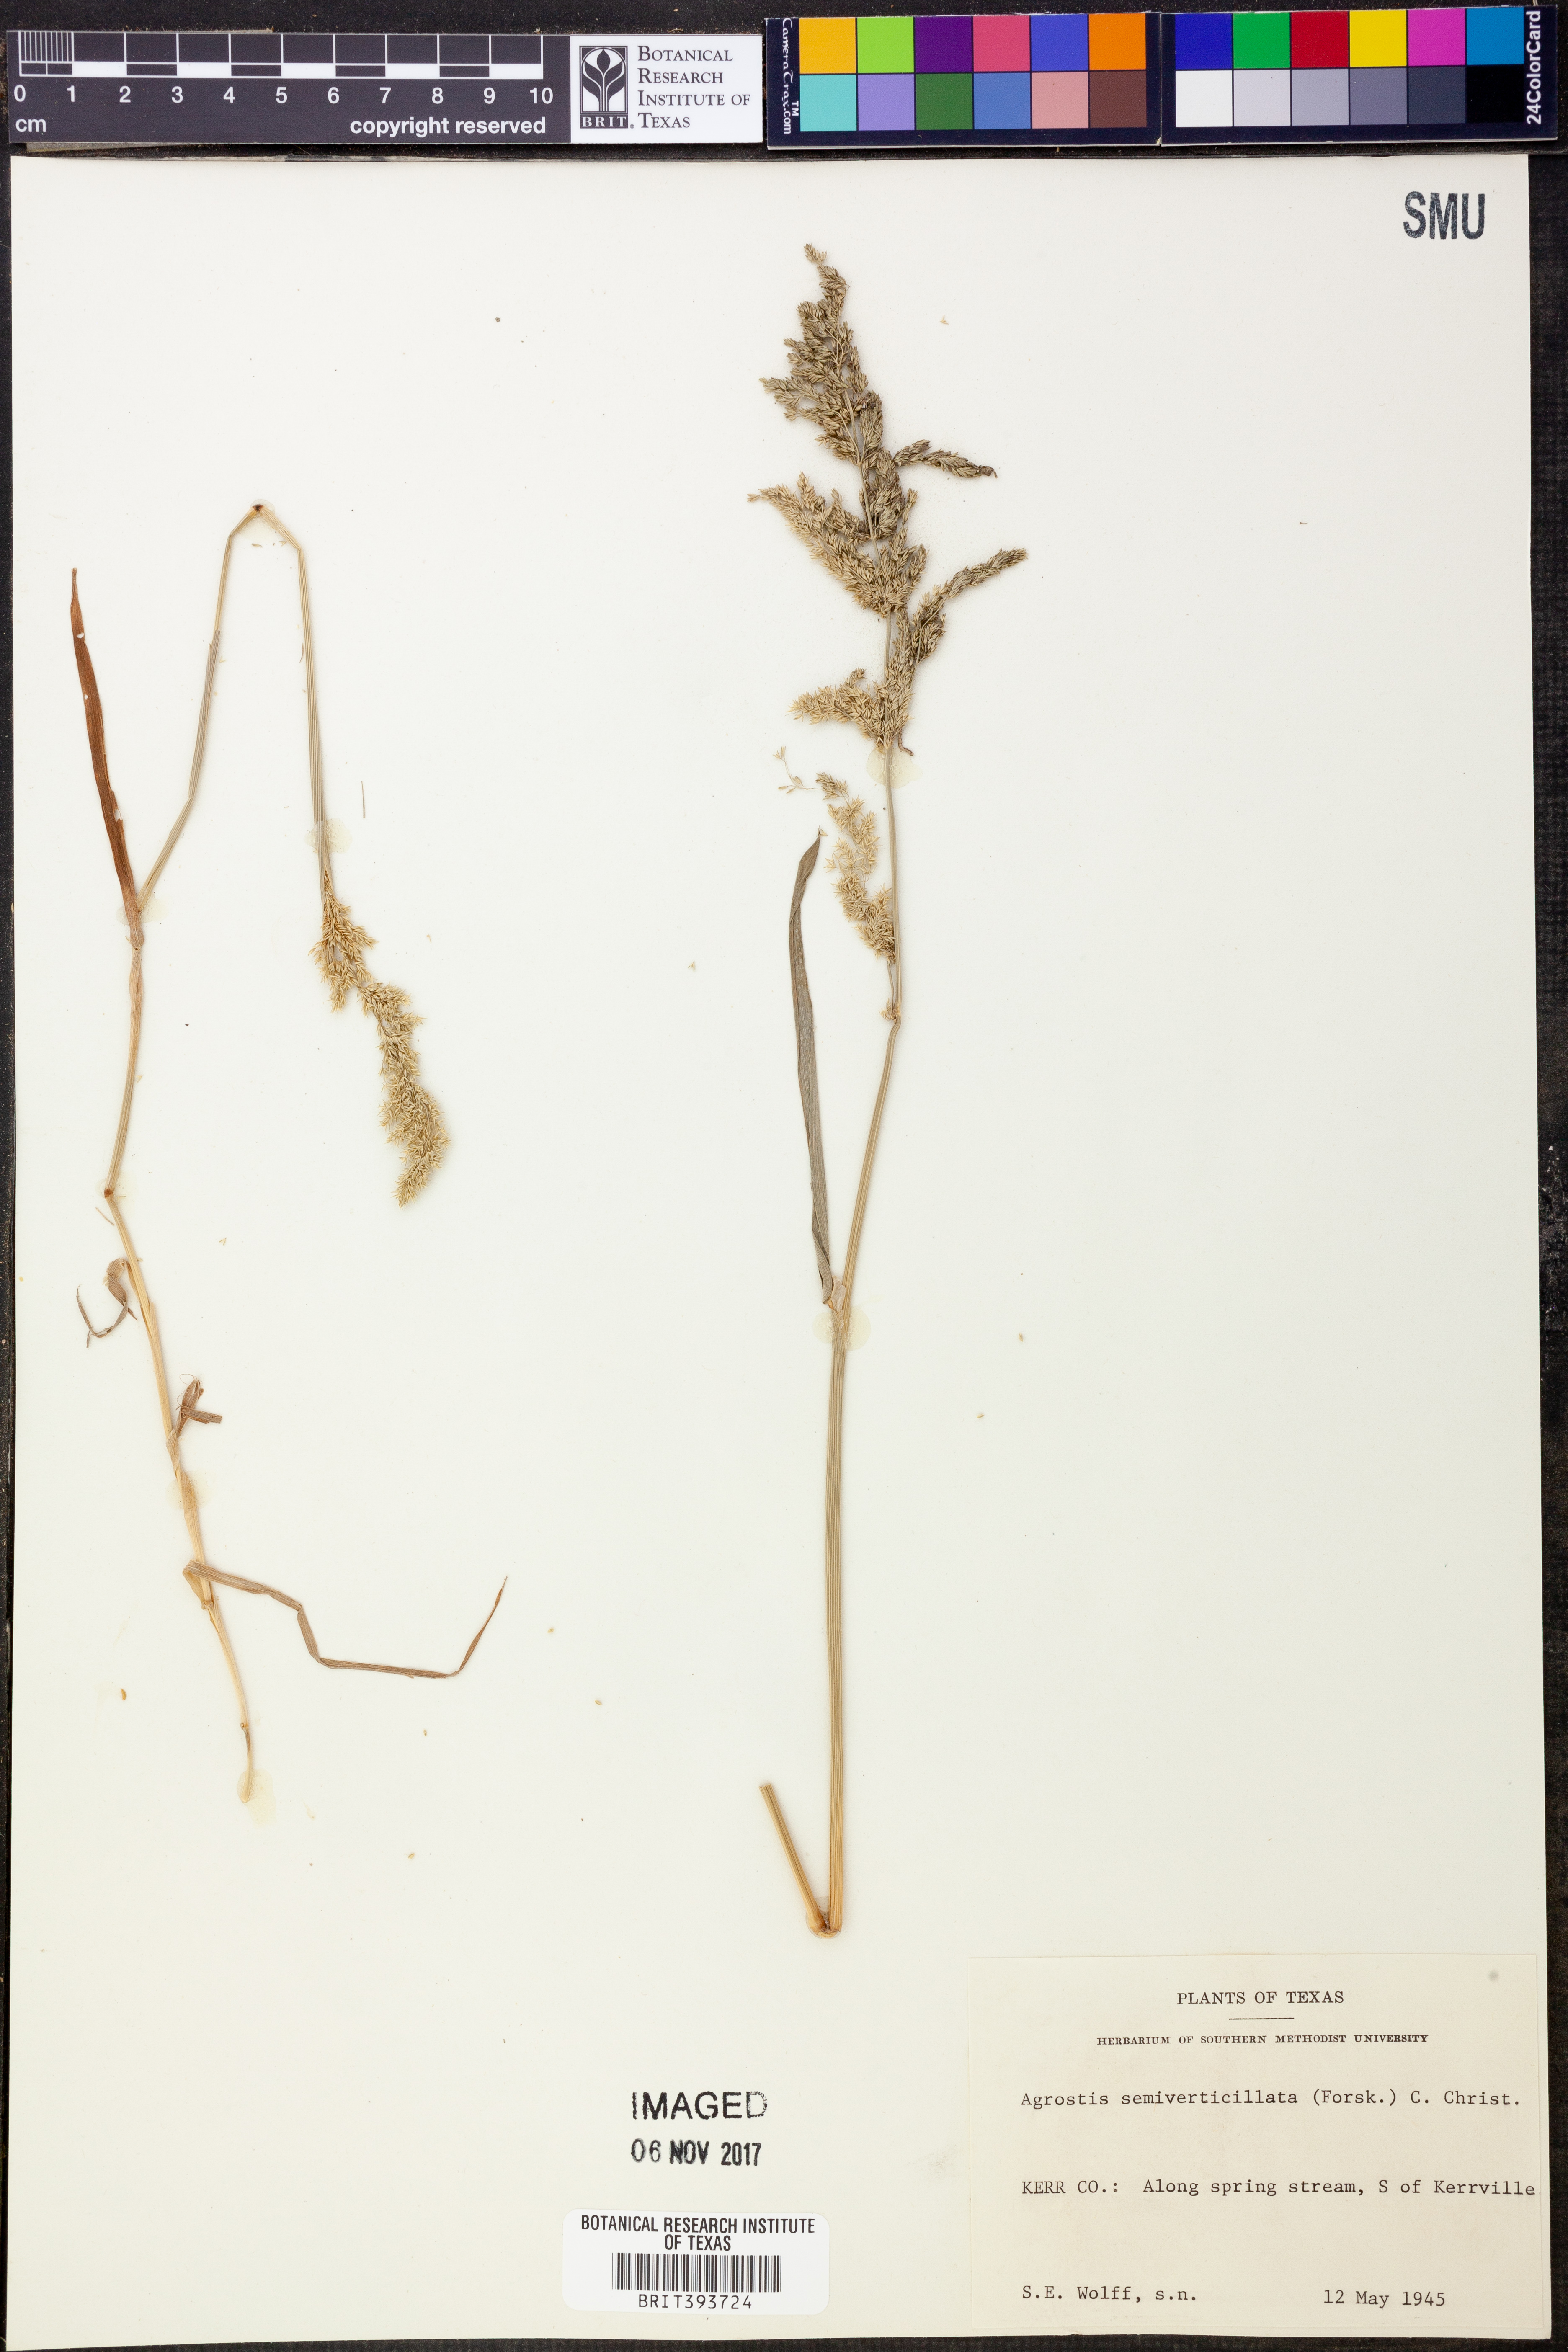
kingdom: Plantae
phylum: Tracheophyta
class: Liliopsida
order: Poales
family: Poaceae
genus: Polypogon
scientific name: Polypogon viridis
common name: Water bent
